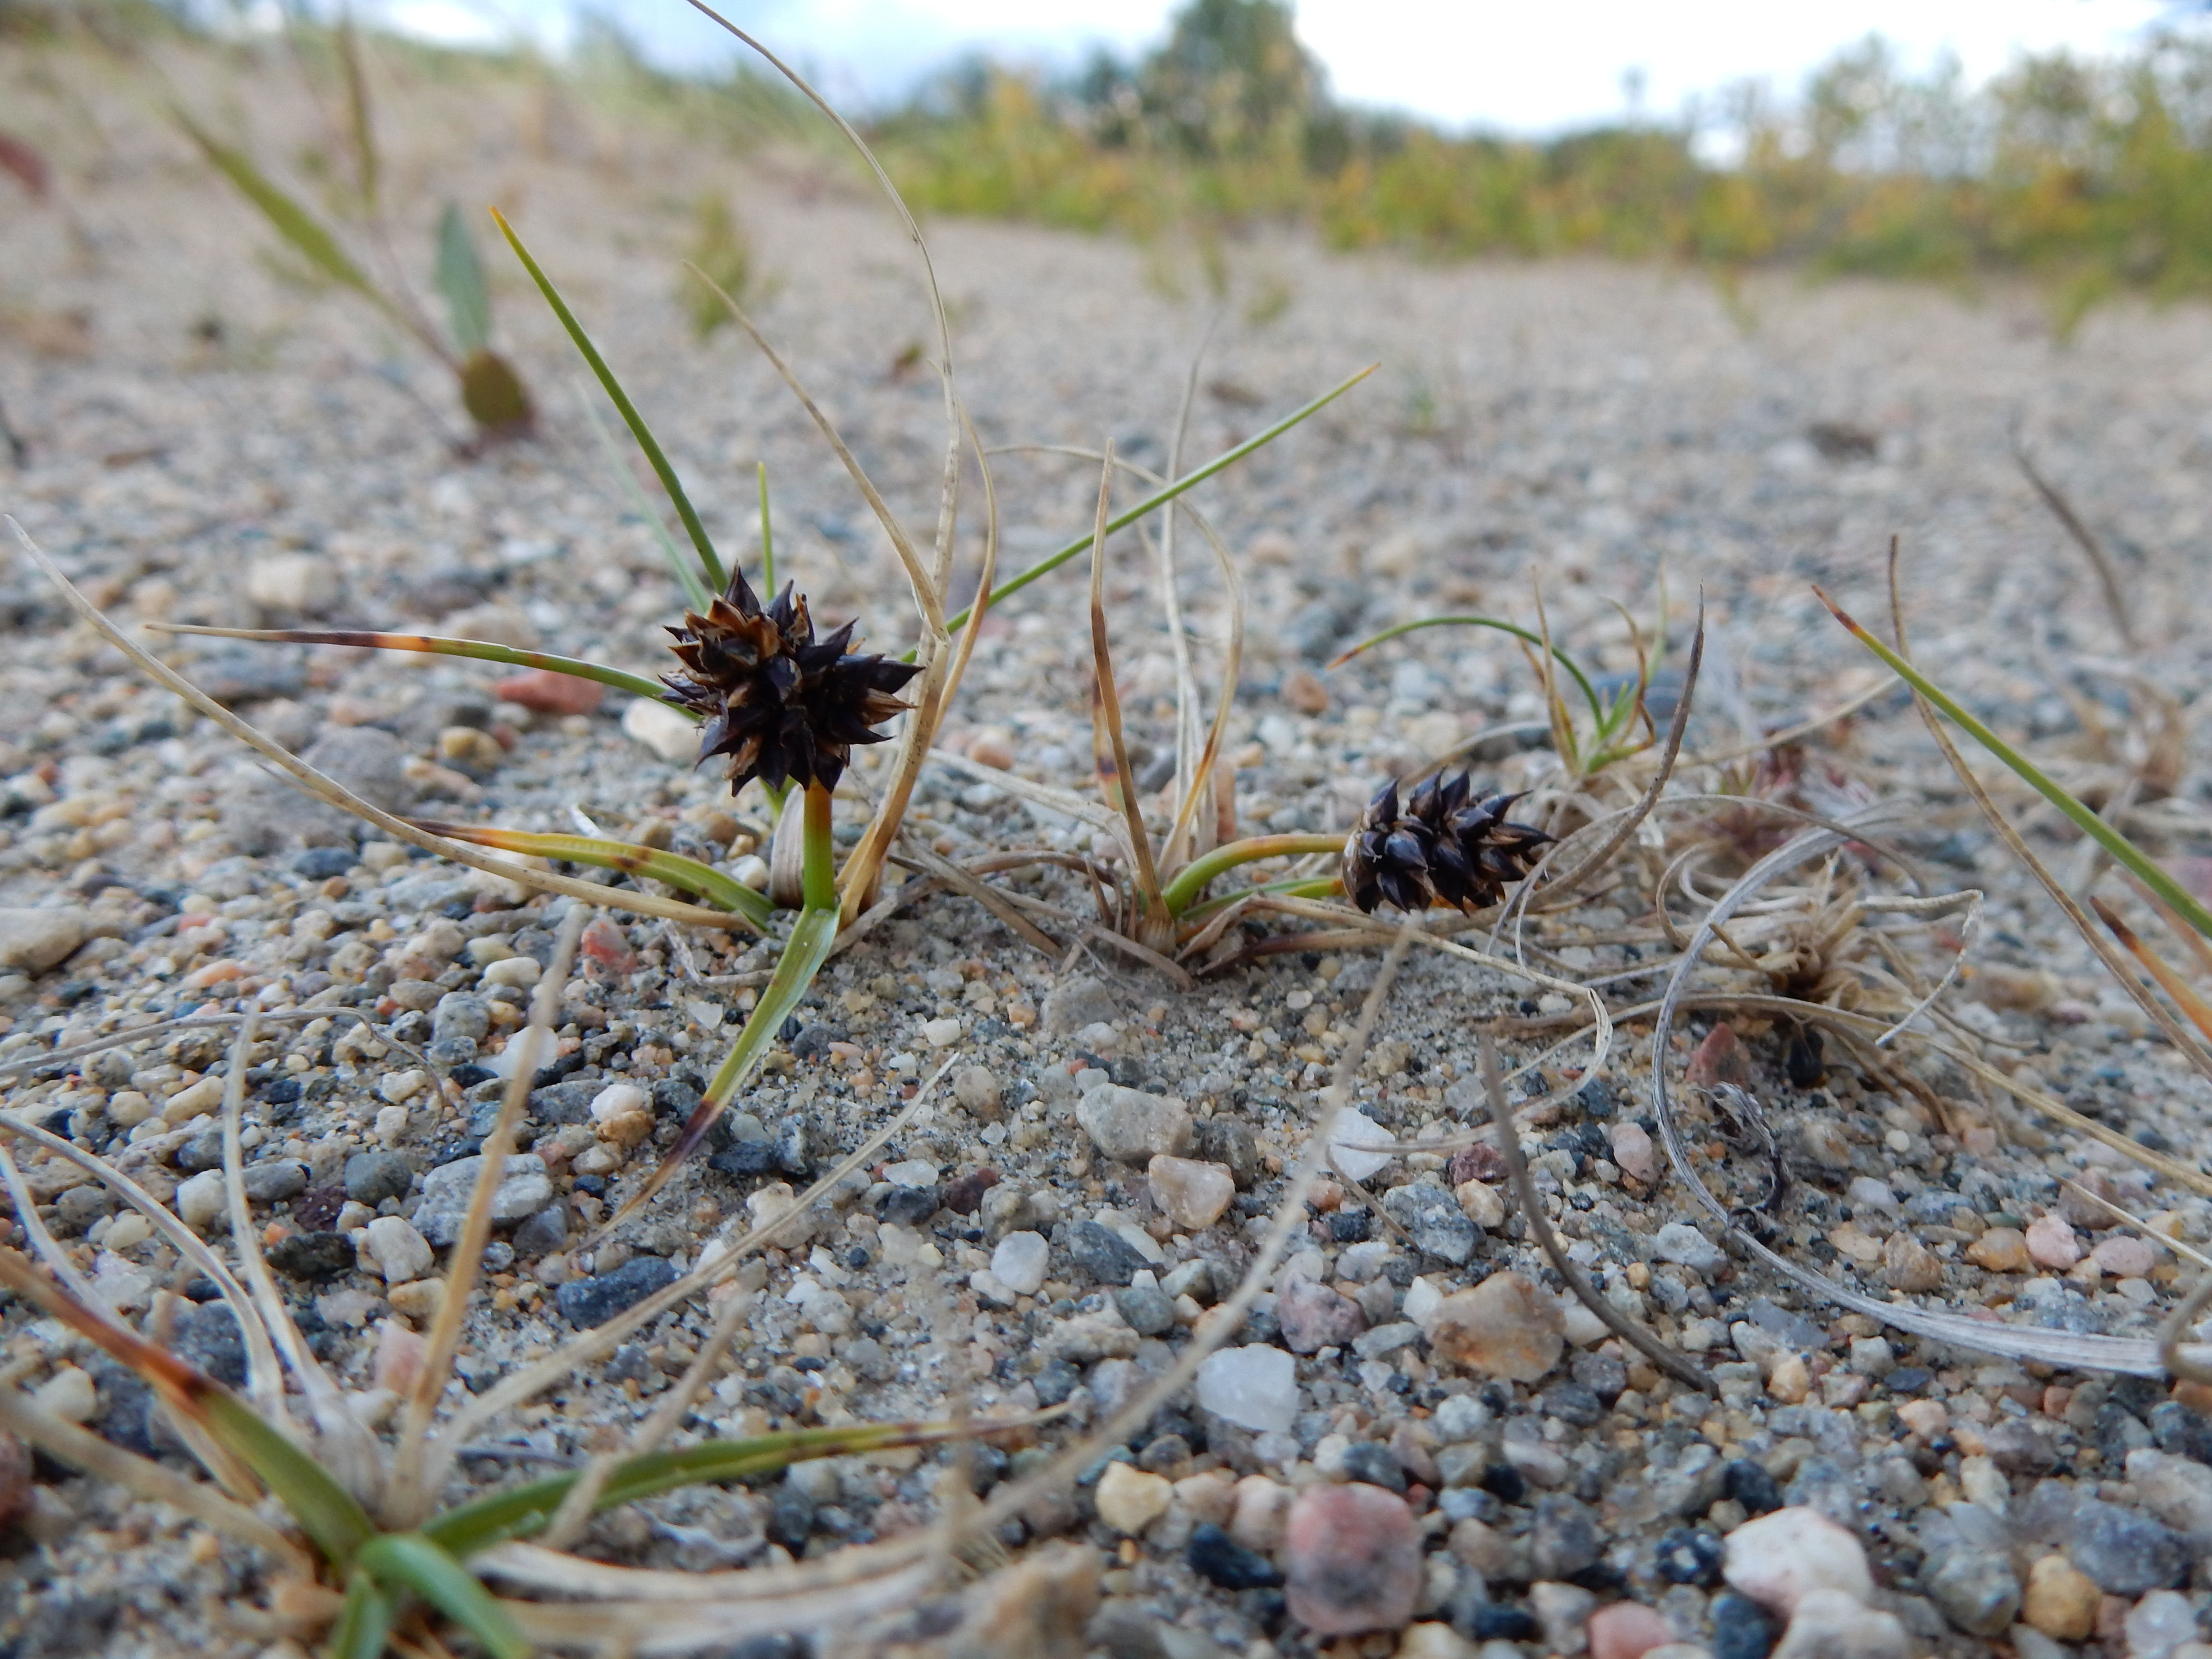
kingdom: Plantae
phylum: Tracheophyta
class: Liliopsida
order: Poales
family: Cyperaceae
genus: Carex
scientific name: Carex paleacea
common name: Chaffy sedge
